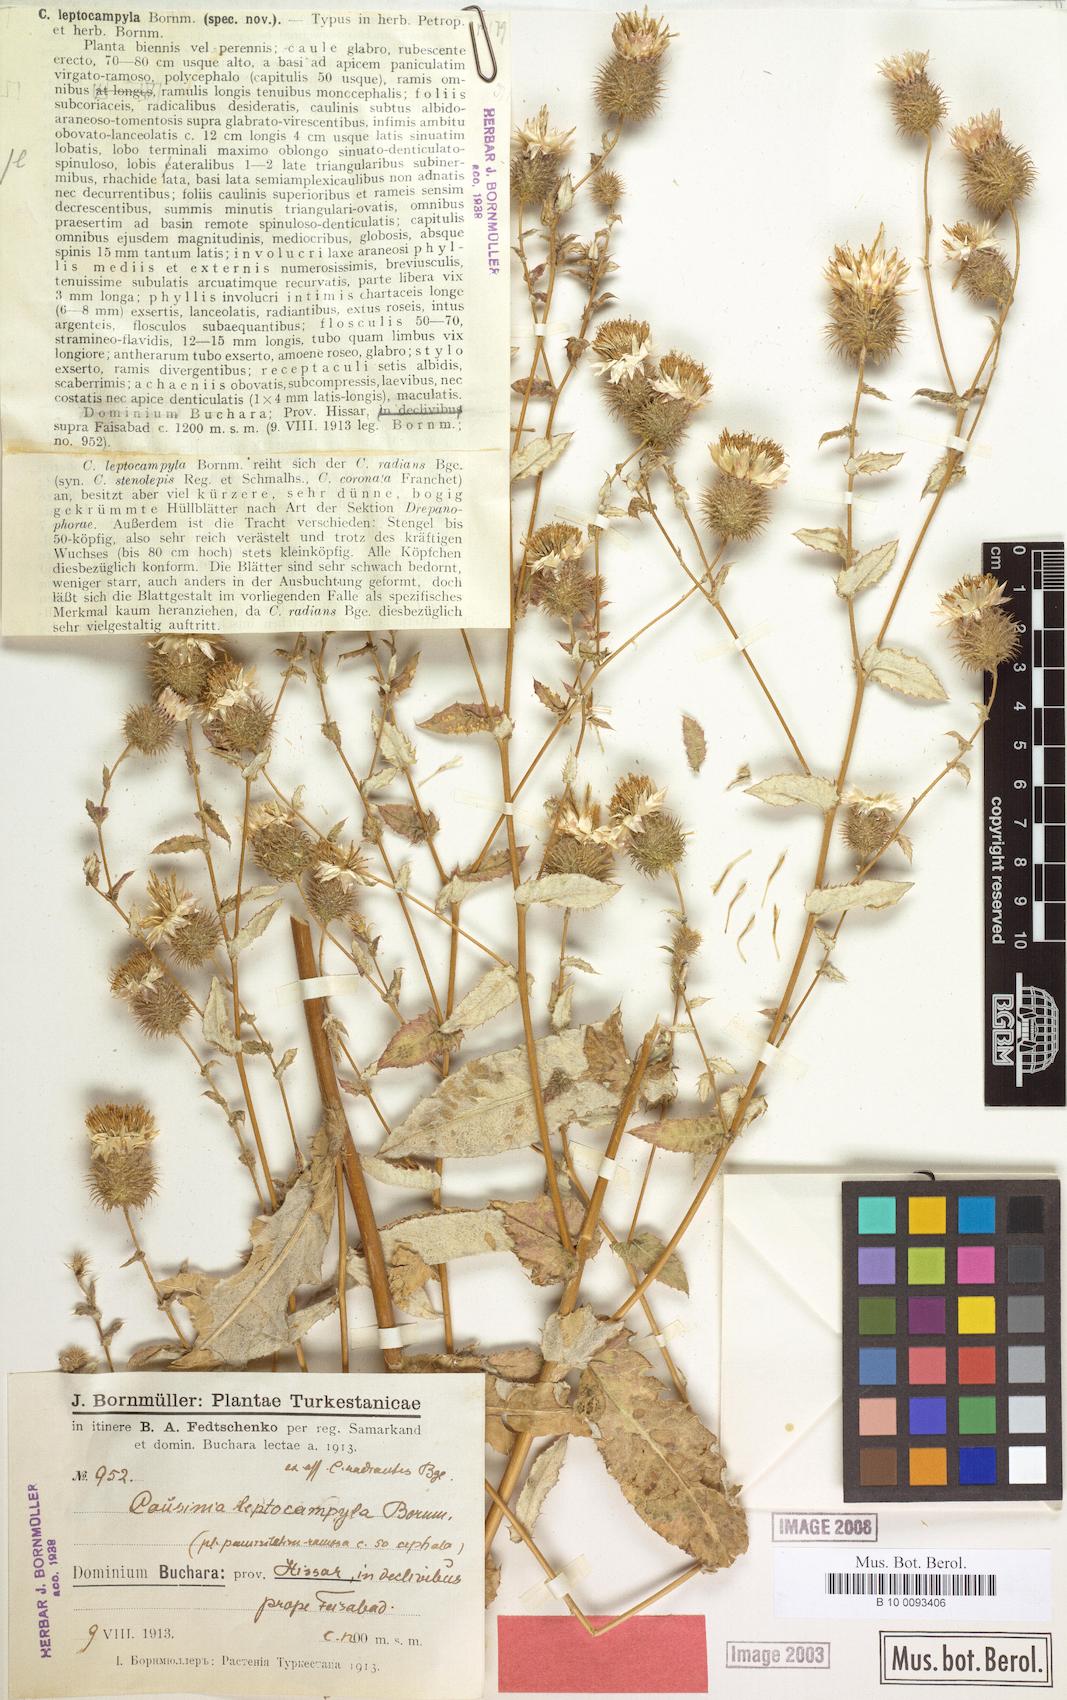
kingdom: Plantae
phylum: Tracheophyta
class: Magnoliopsida
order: Asterales
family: Asteraceae
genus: Cousinia
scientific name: Cousinia leptocampyla
